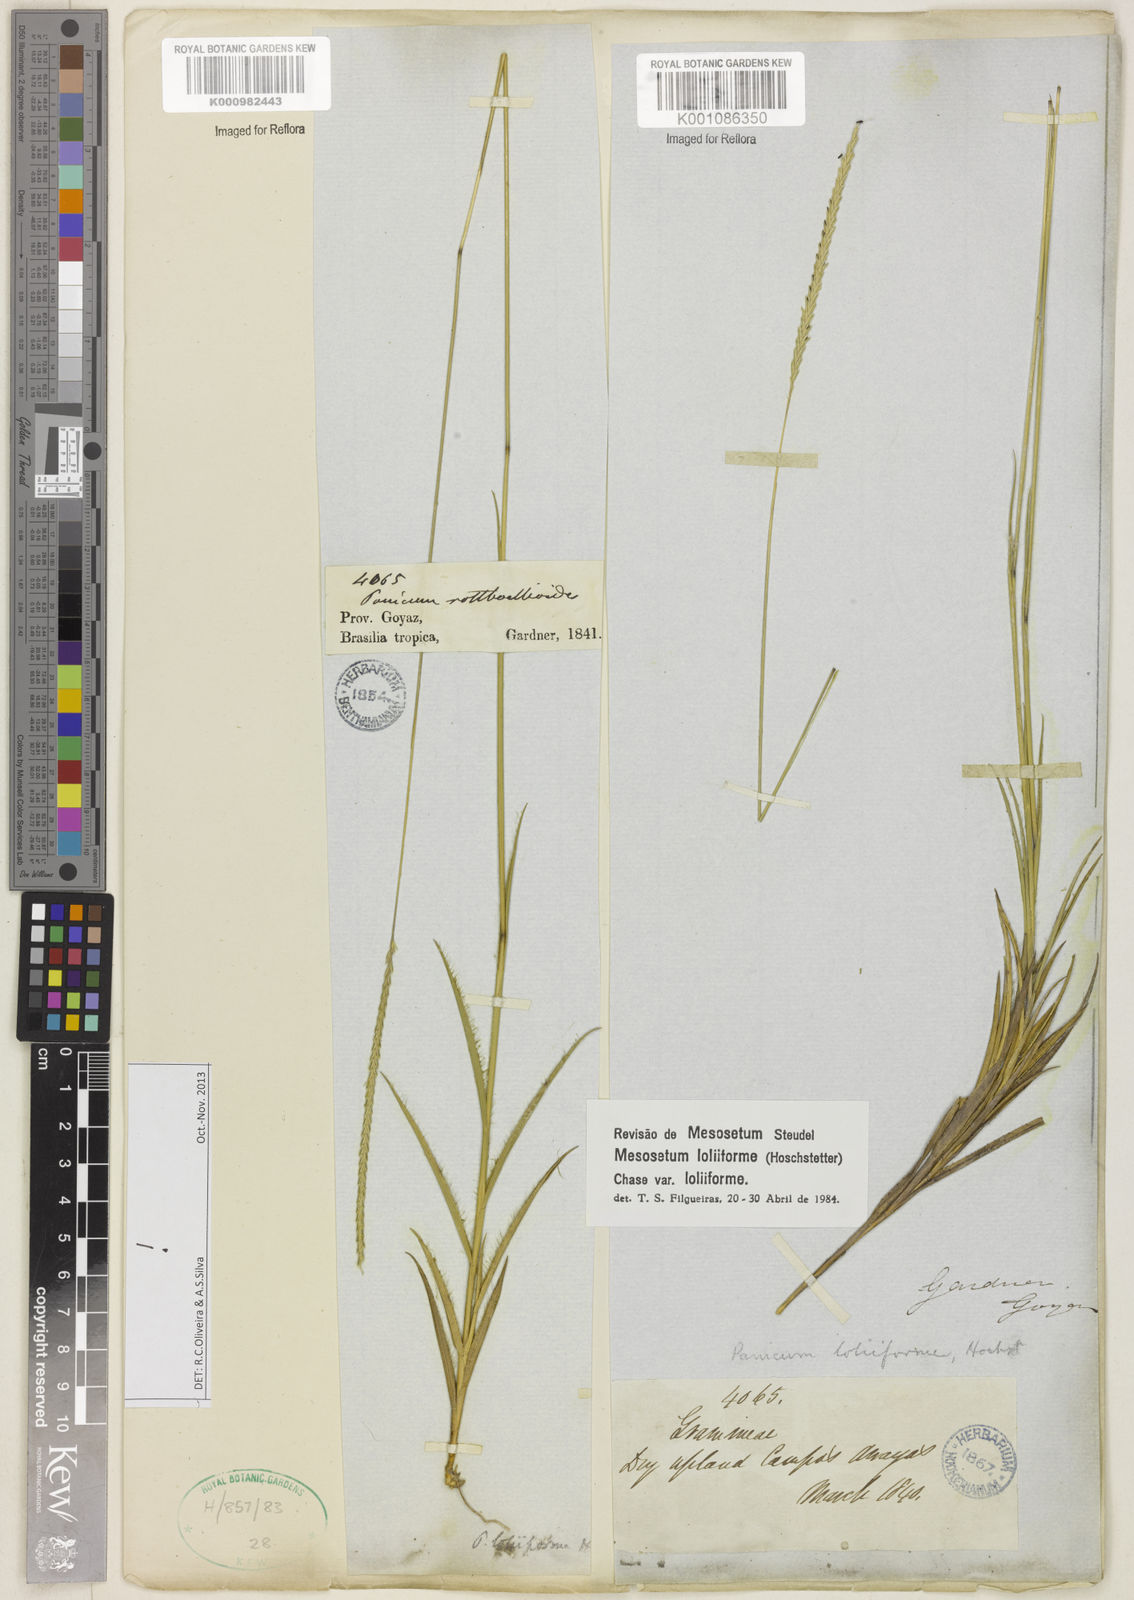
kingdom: Plantae
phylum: Tracheophyta
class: Liliopsida
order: Poales
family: Poaceae
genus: Mesosetum
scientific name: Mesosetum loliiforme
